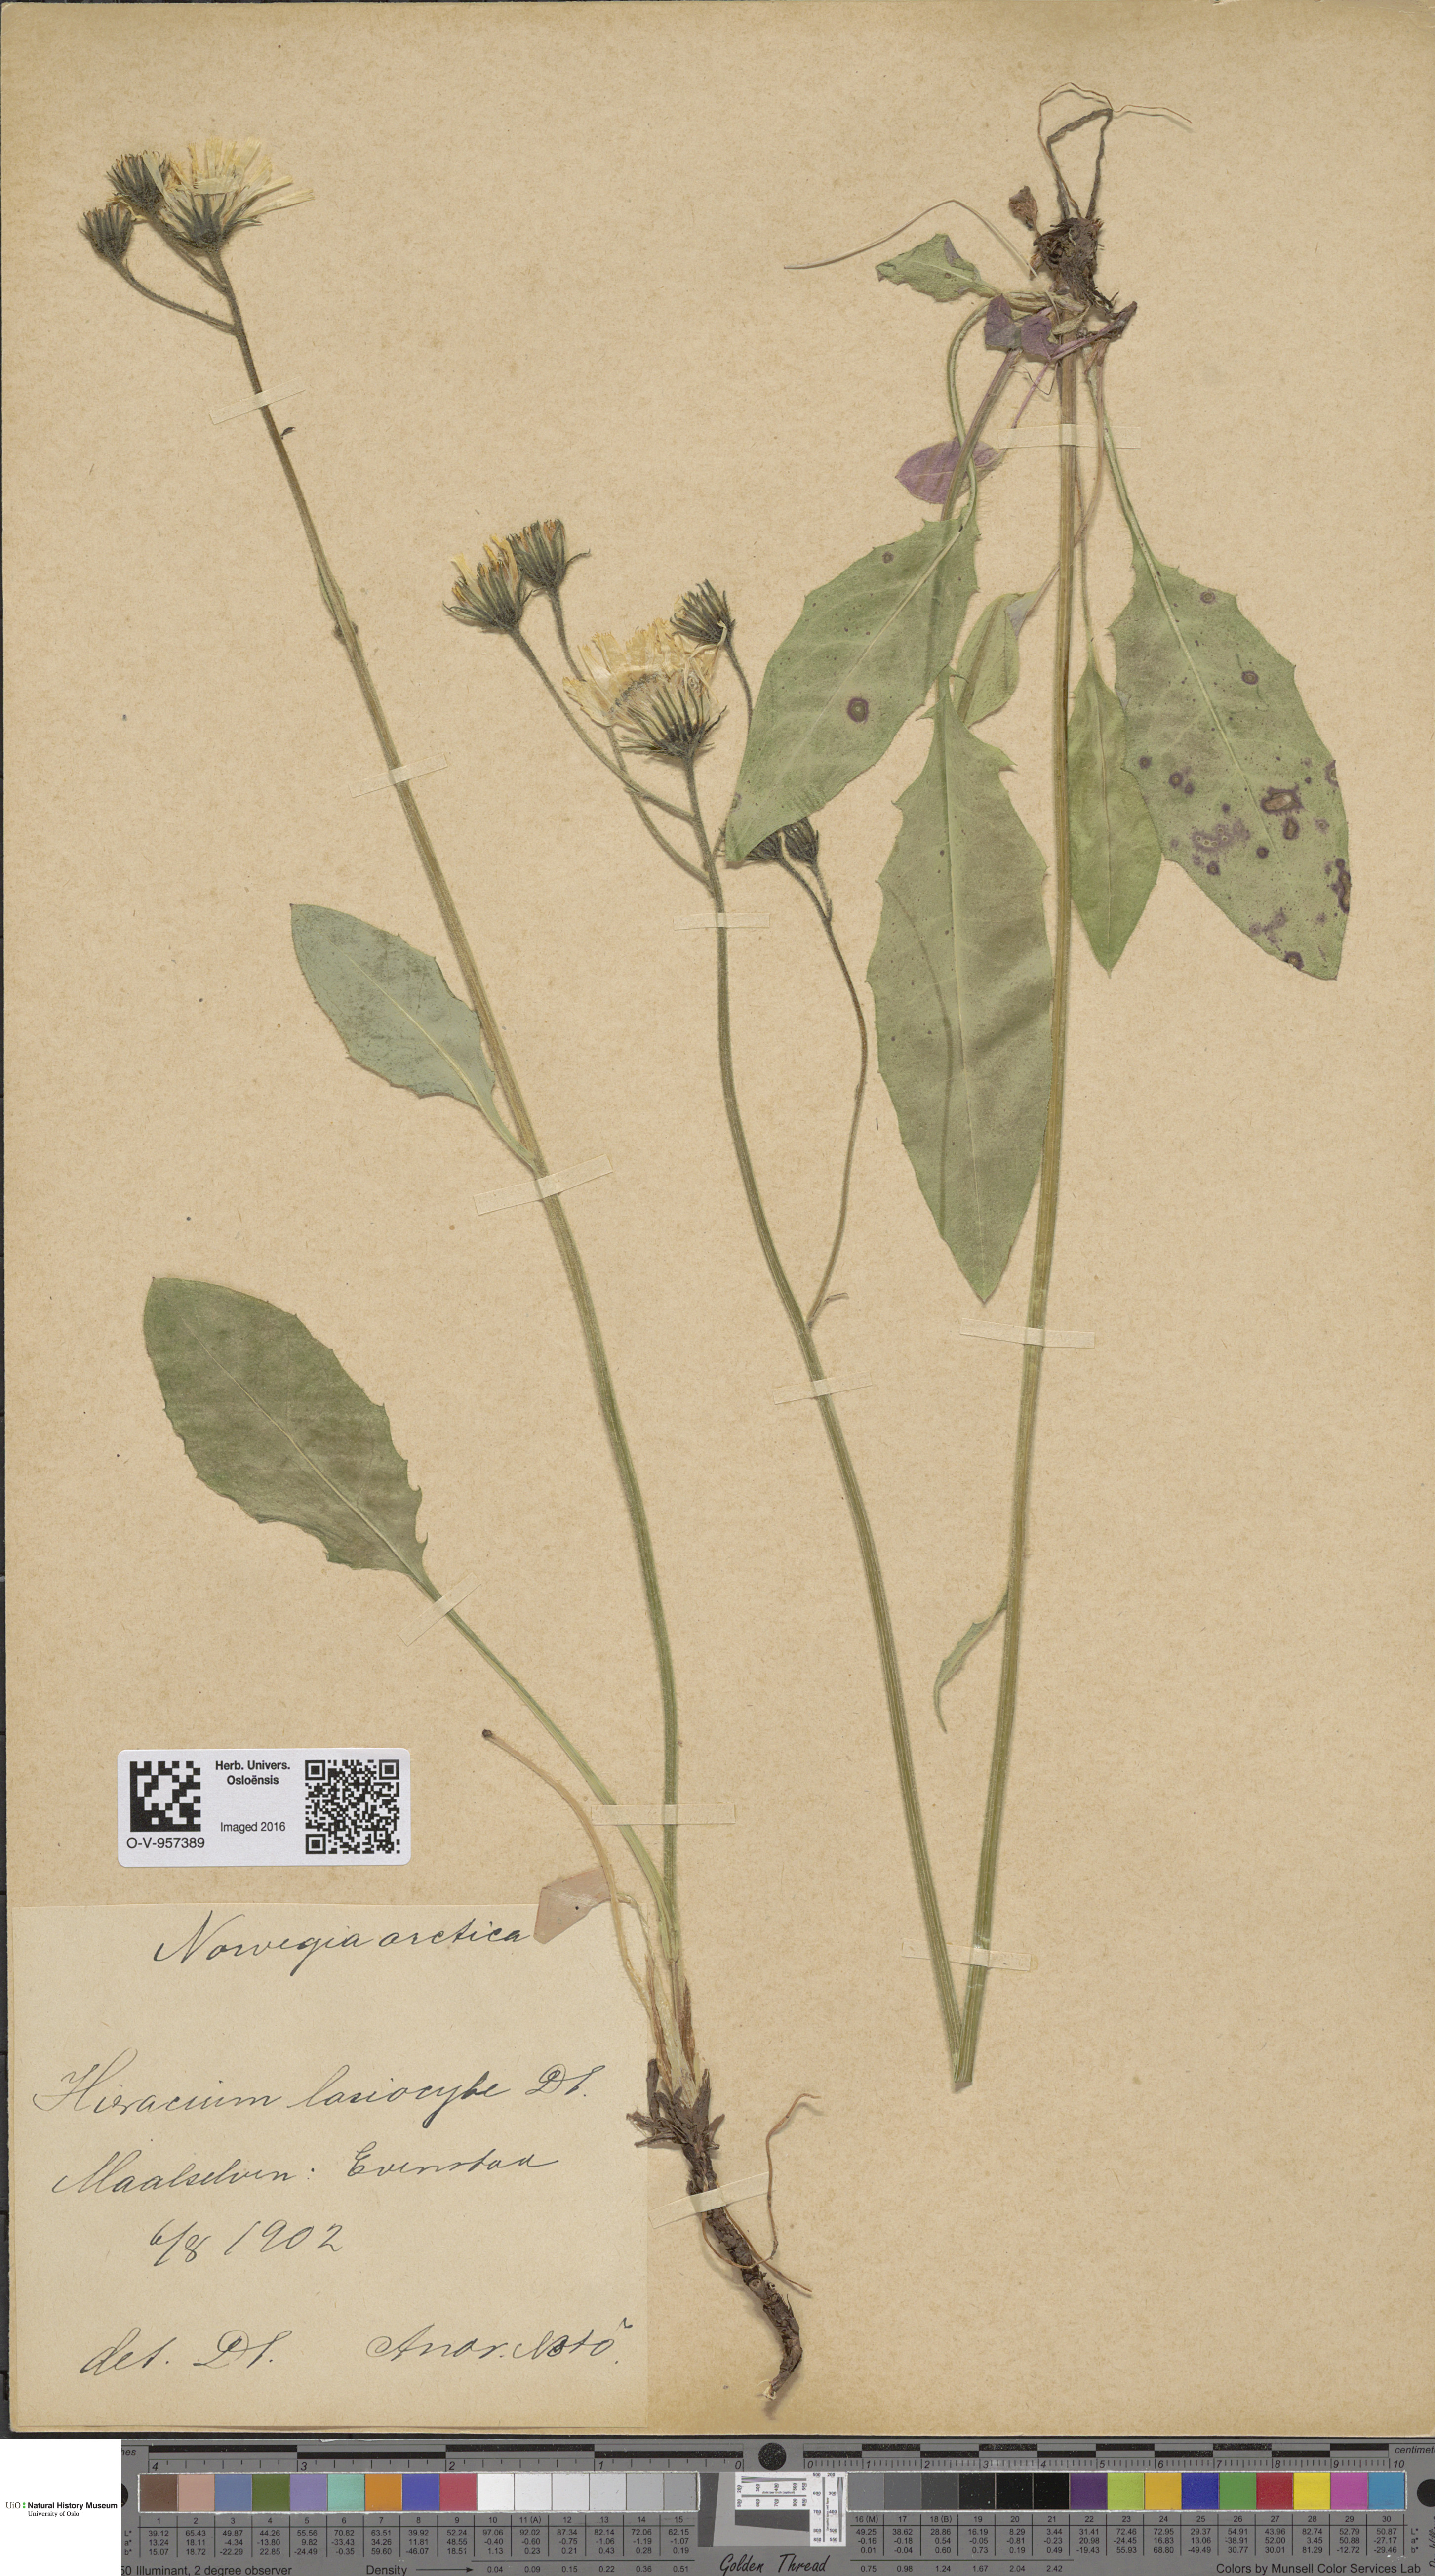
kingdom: Plantae
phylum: Tracheophyta
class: Magnoliopsida
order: Asterales
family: Asteraceae
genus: Hieracium
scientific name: Hieracium
